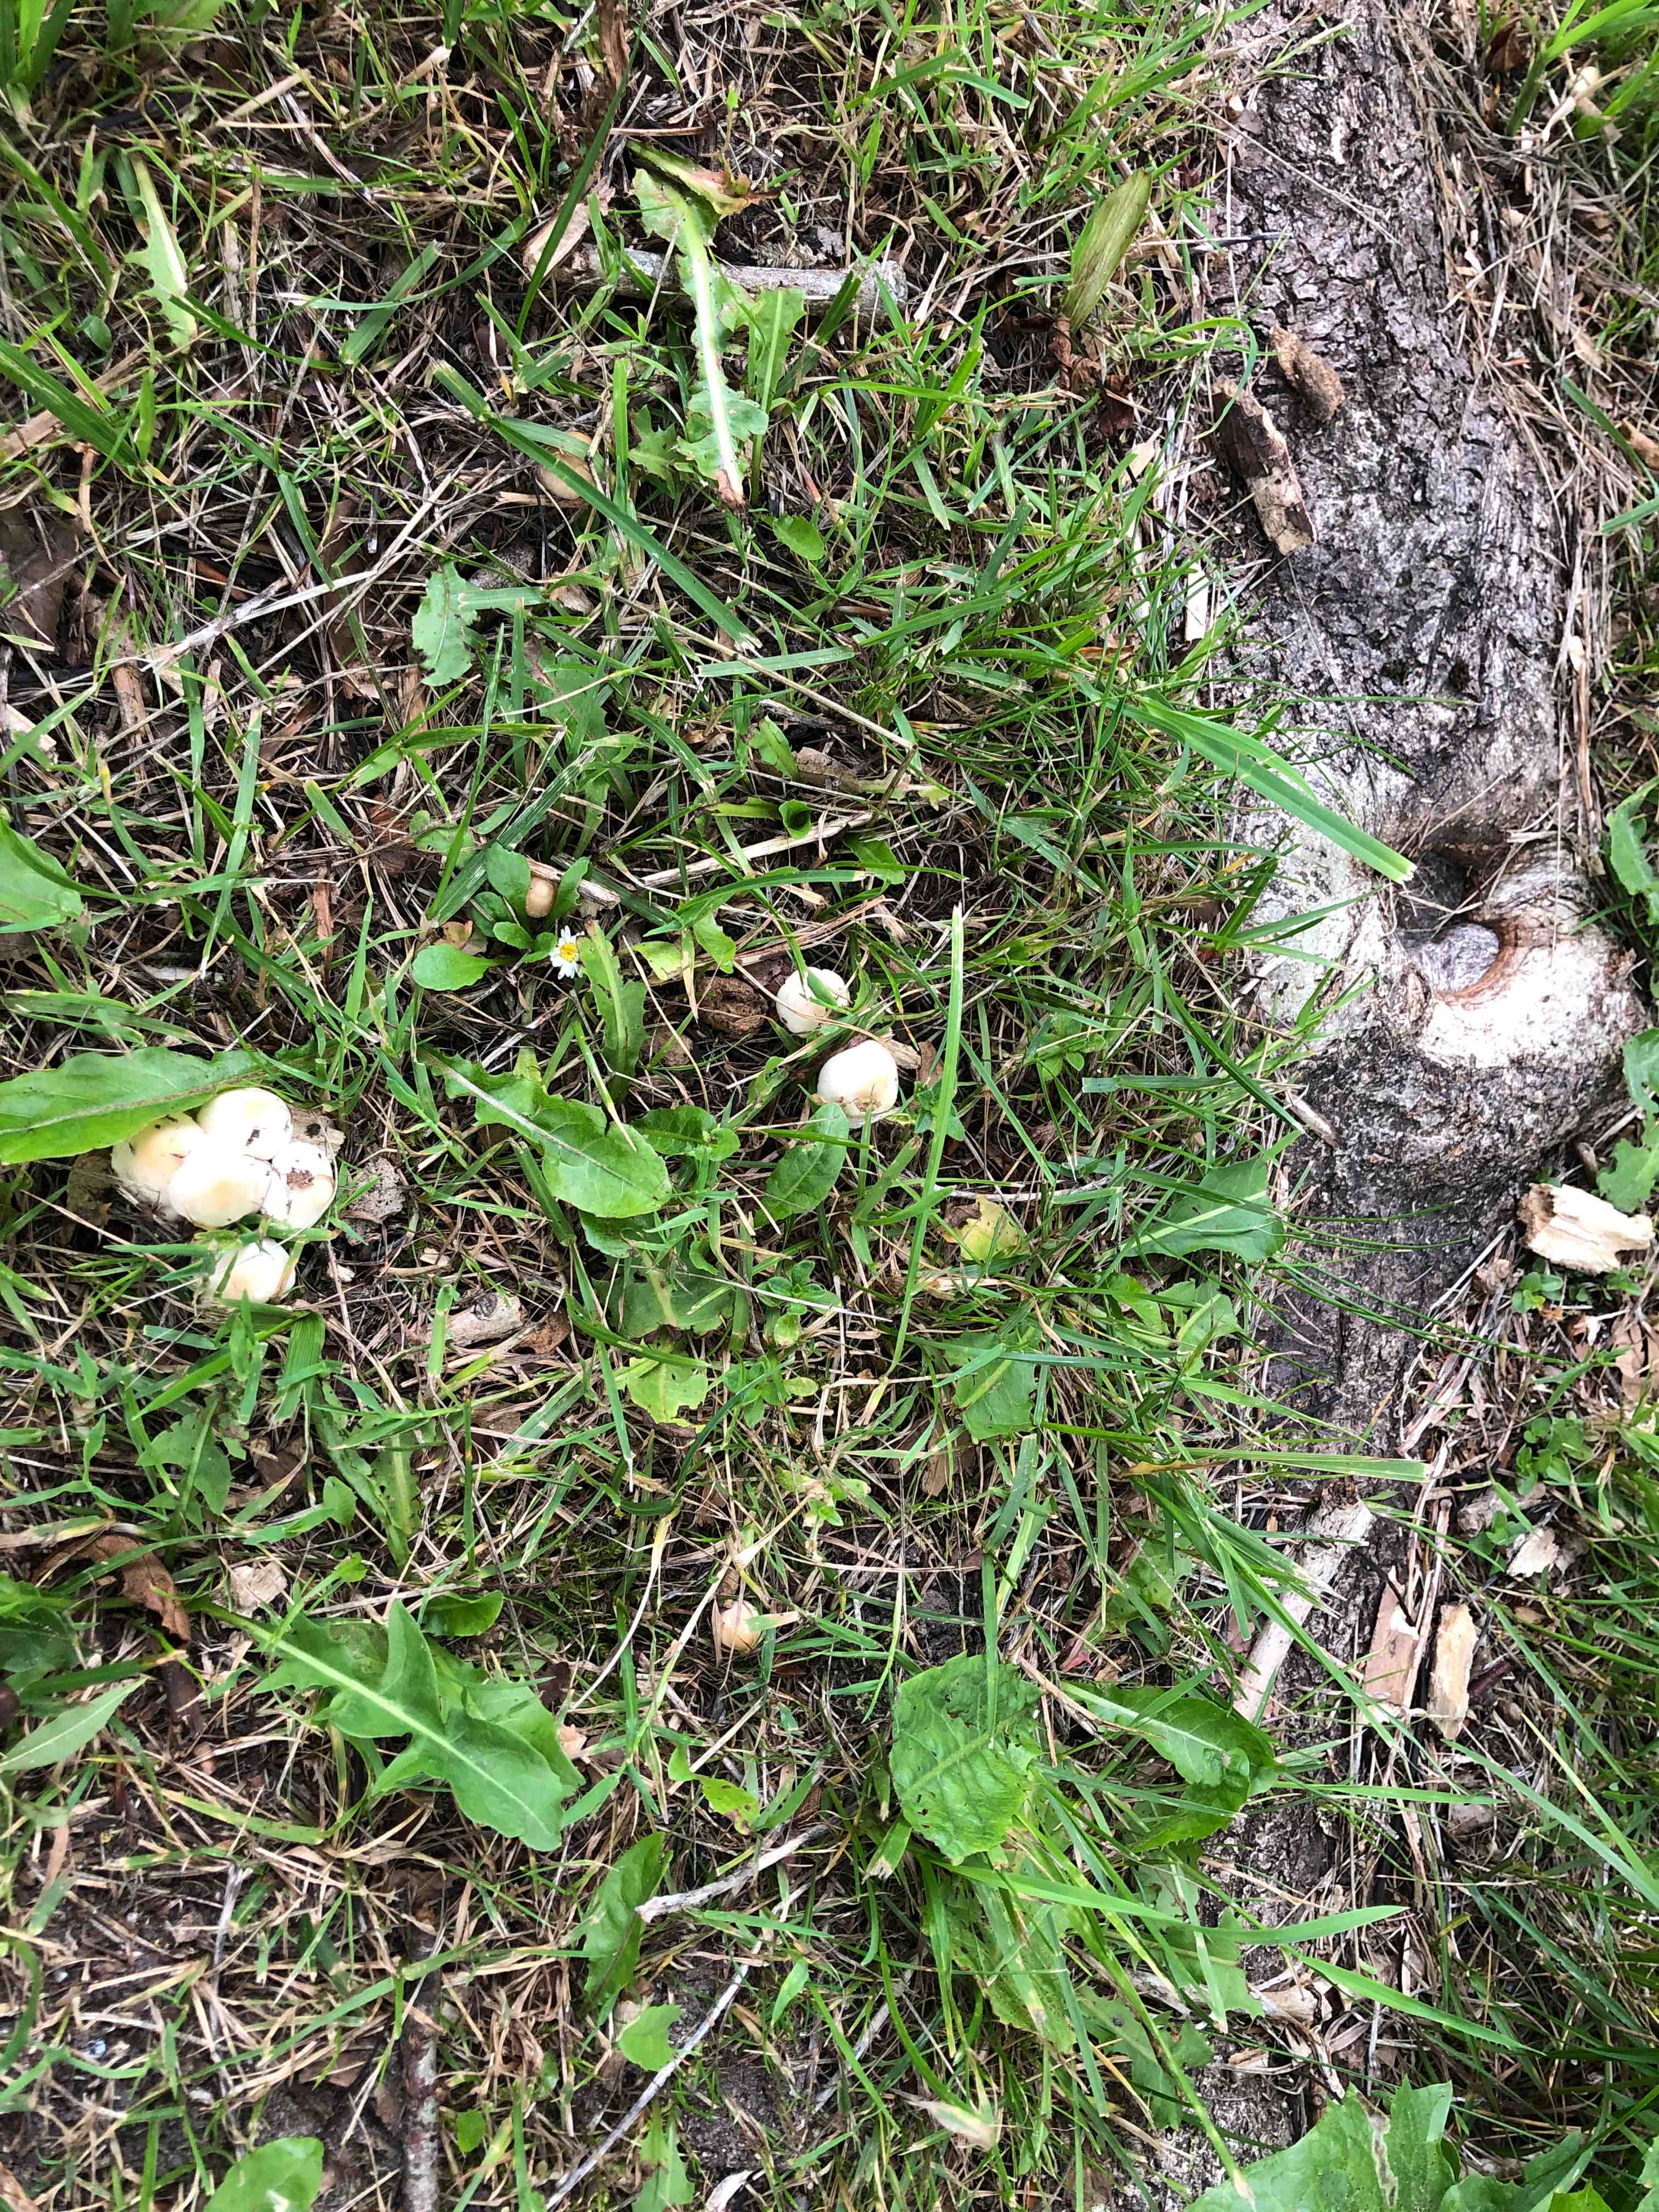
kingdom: Fungi
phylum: Basidiomycota
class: Agaricomycetes
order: Agaricales
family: Strophariaceae
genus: Agrocybe
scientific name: Agrocybe
